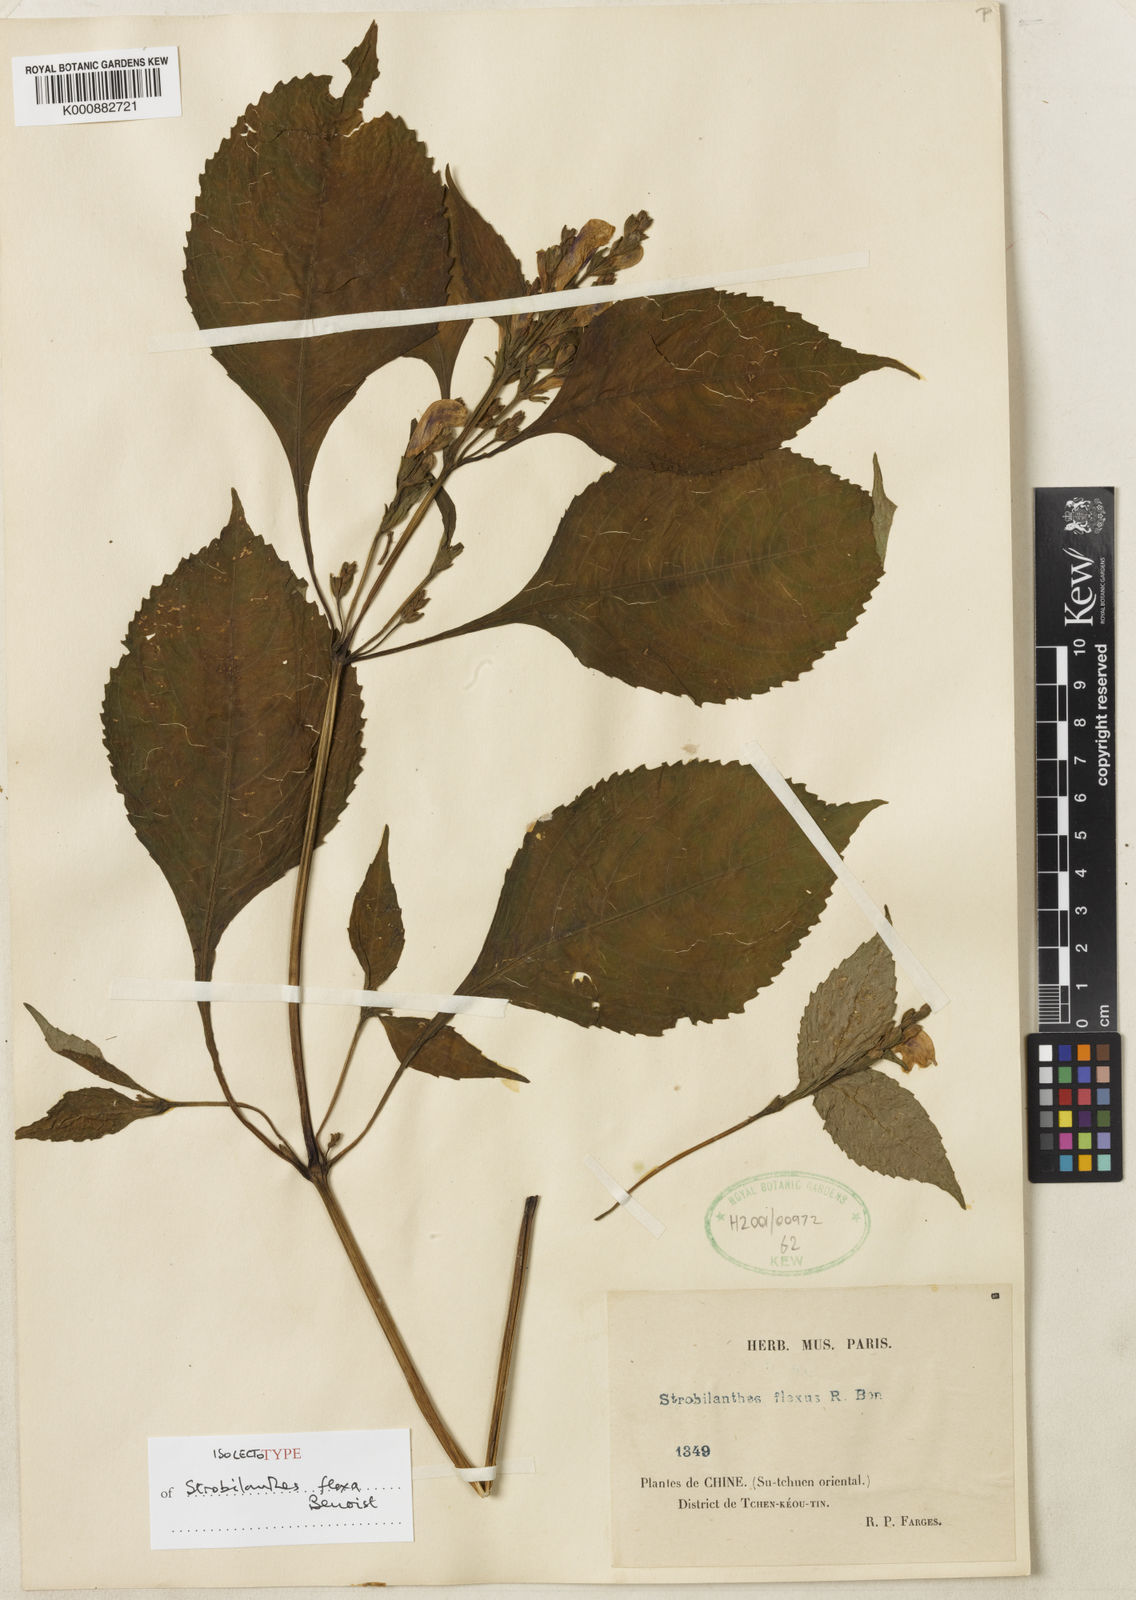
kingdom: Plantae
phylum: Tracheophyta
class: Magnoliopsida
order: Lamiales
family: Acanthaceae
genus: Strobilanthes
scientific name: Strobilanthes versicolor
